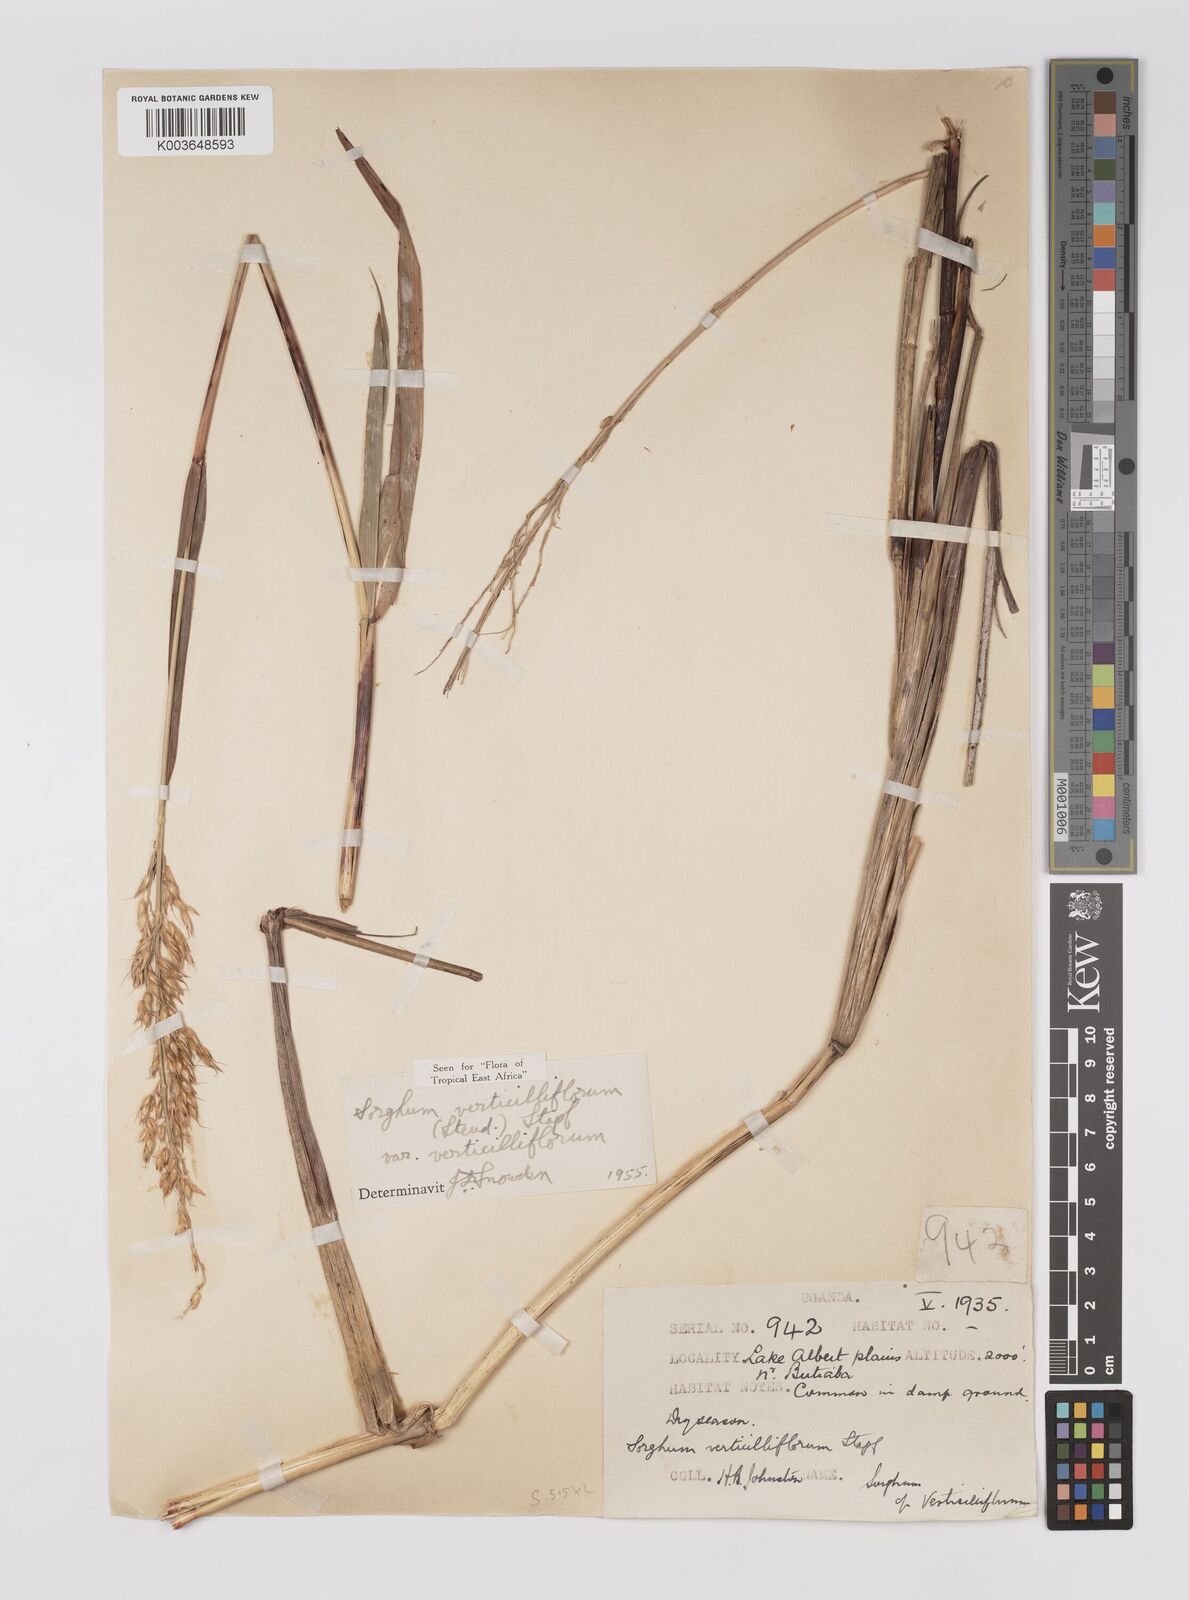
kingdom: Plantae
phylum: Tracheophyta
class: Liliopsida
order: Poales
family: Poaceae
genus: Sorghum
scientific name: Sorghum arundinaceum
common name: Sorghum
